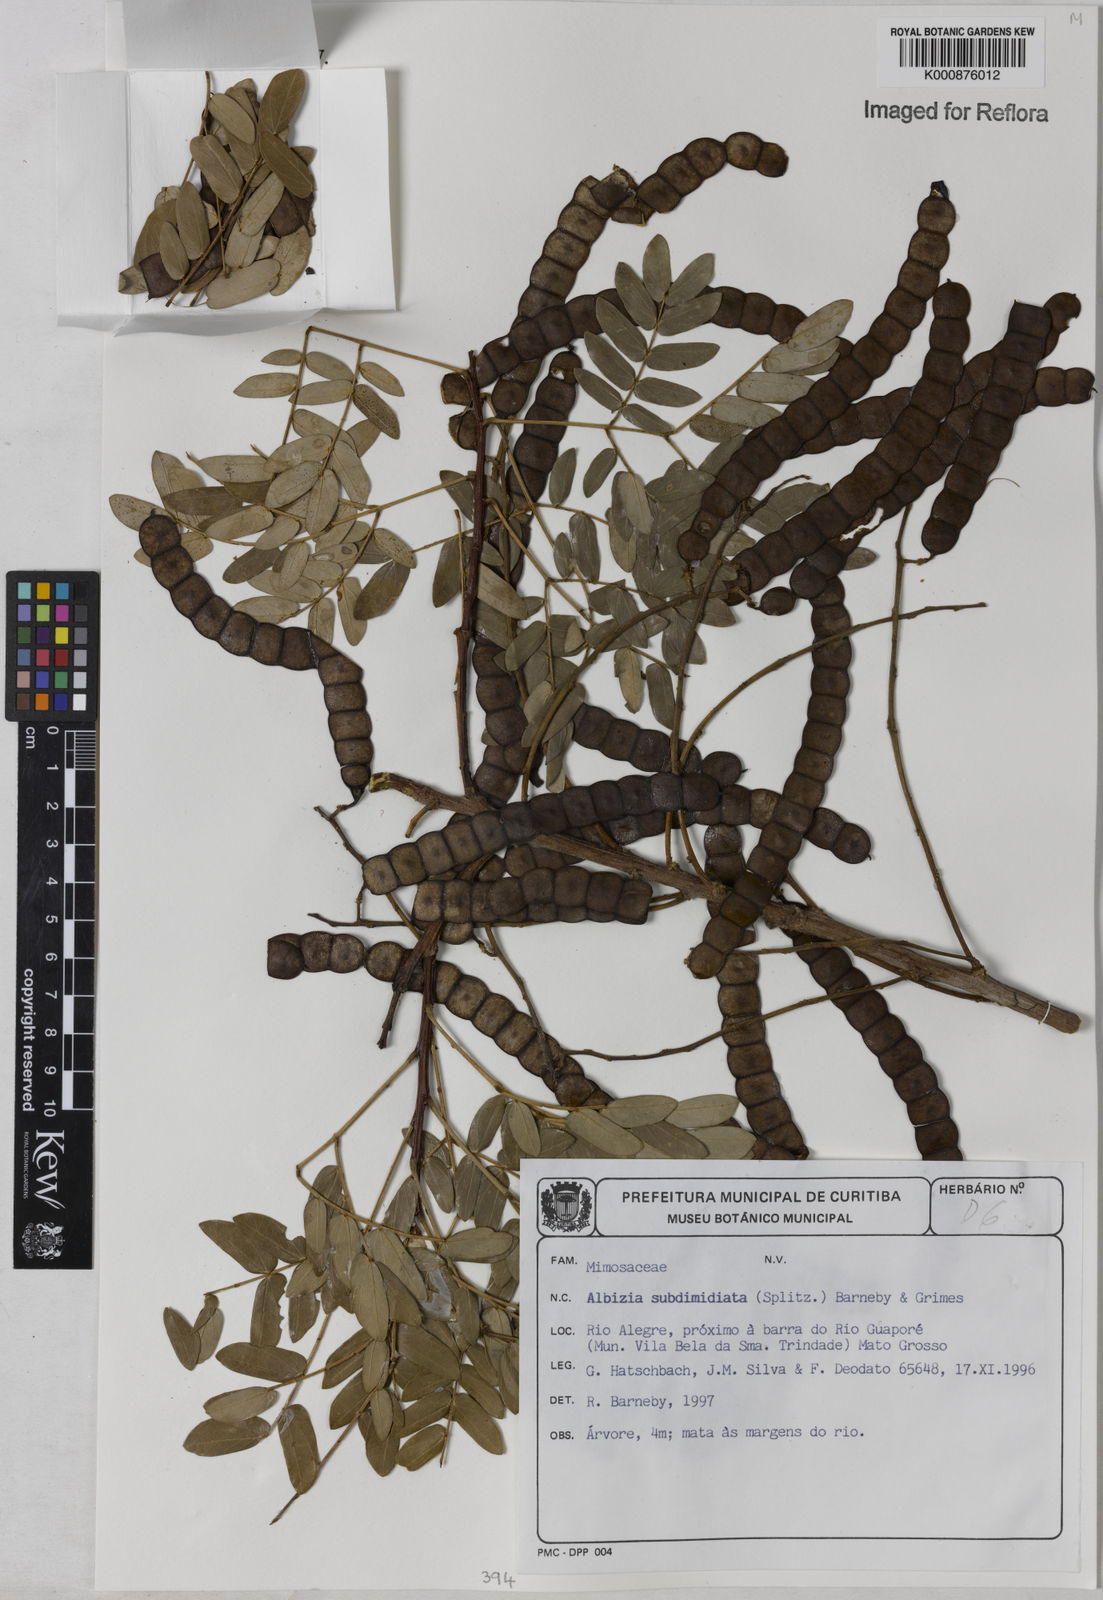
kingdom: Plantae
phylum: Tracheophyta
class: Magnoliopsida
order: Fabales
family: Fabaceae
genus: Albizia
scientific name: Albizia subdimidiata
